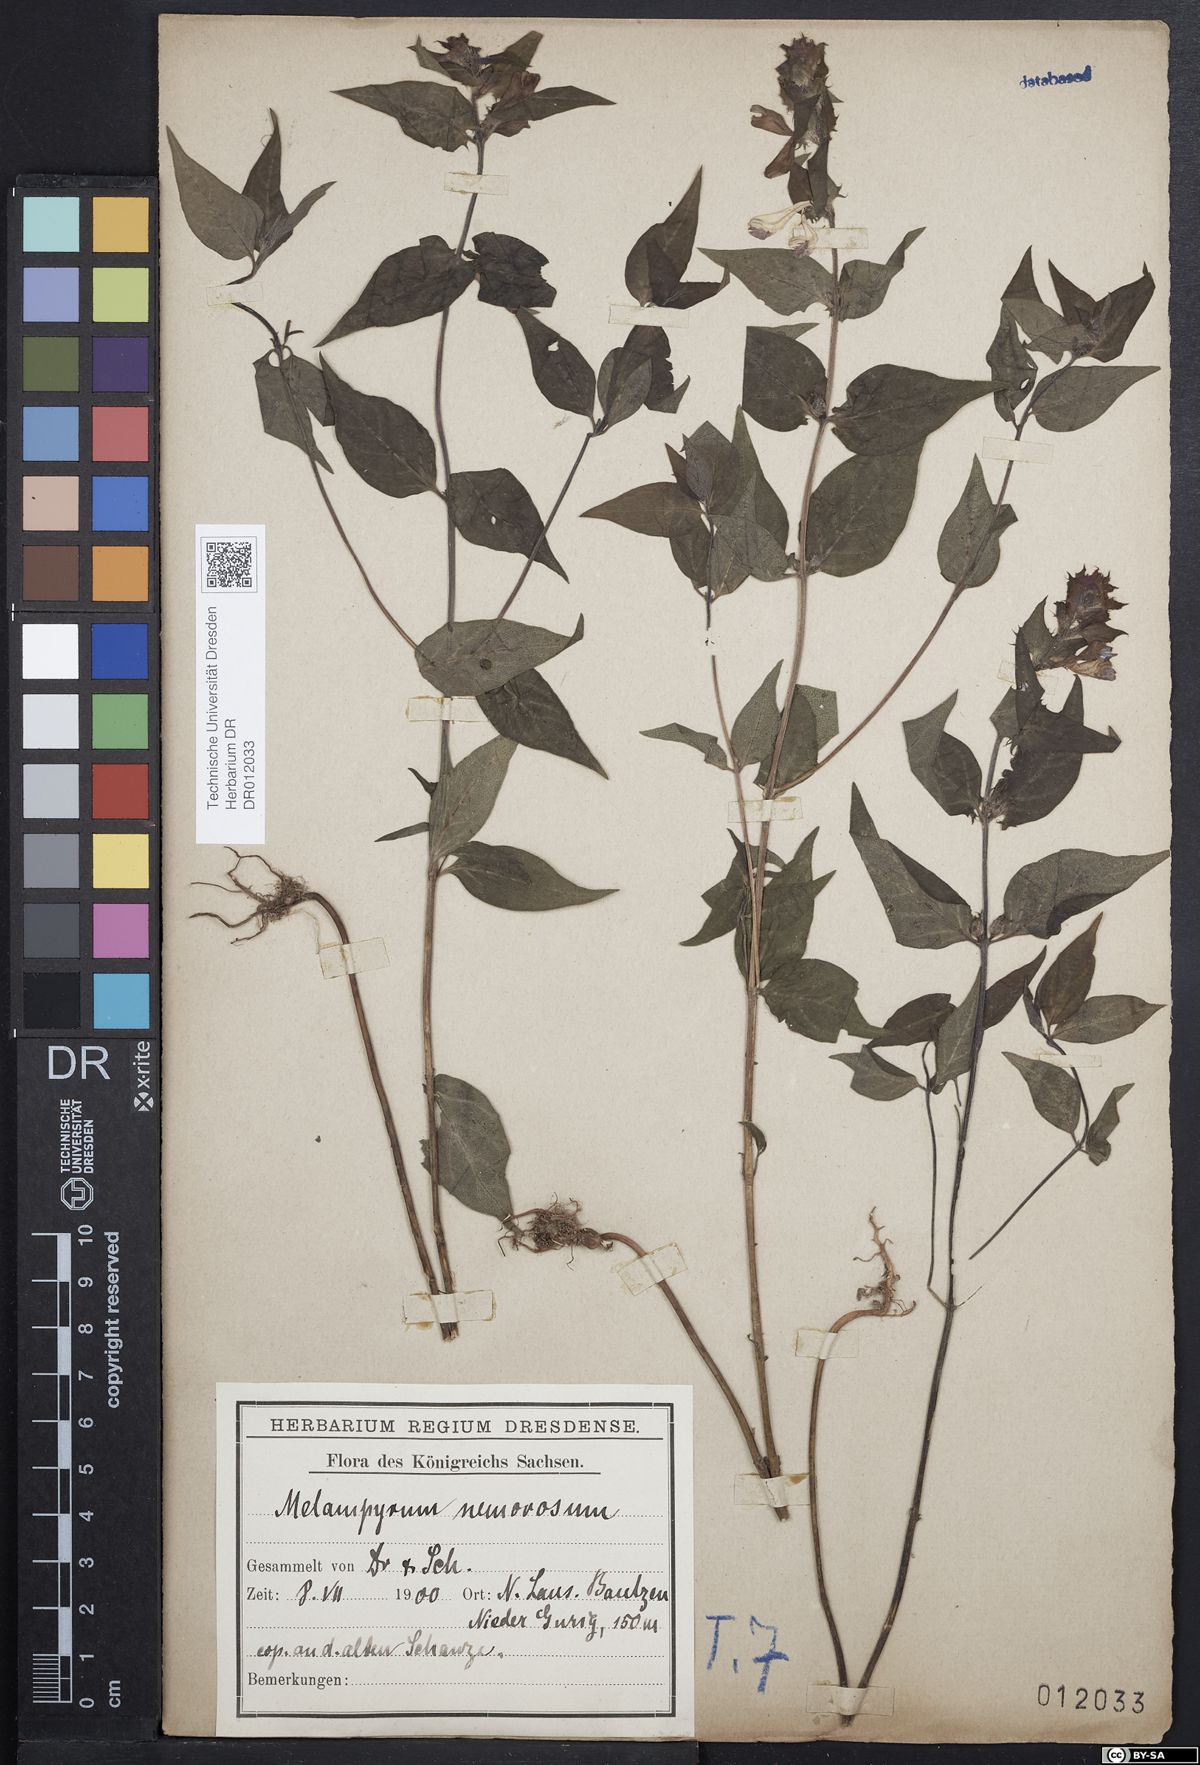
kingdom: Plantae
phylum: Tracheophyta
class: Magnoliopsida
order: Lamiales
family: Orobanchaceae
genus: Melampyrum
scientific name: Melampyrum nemorosum
